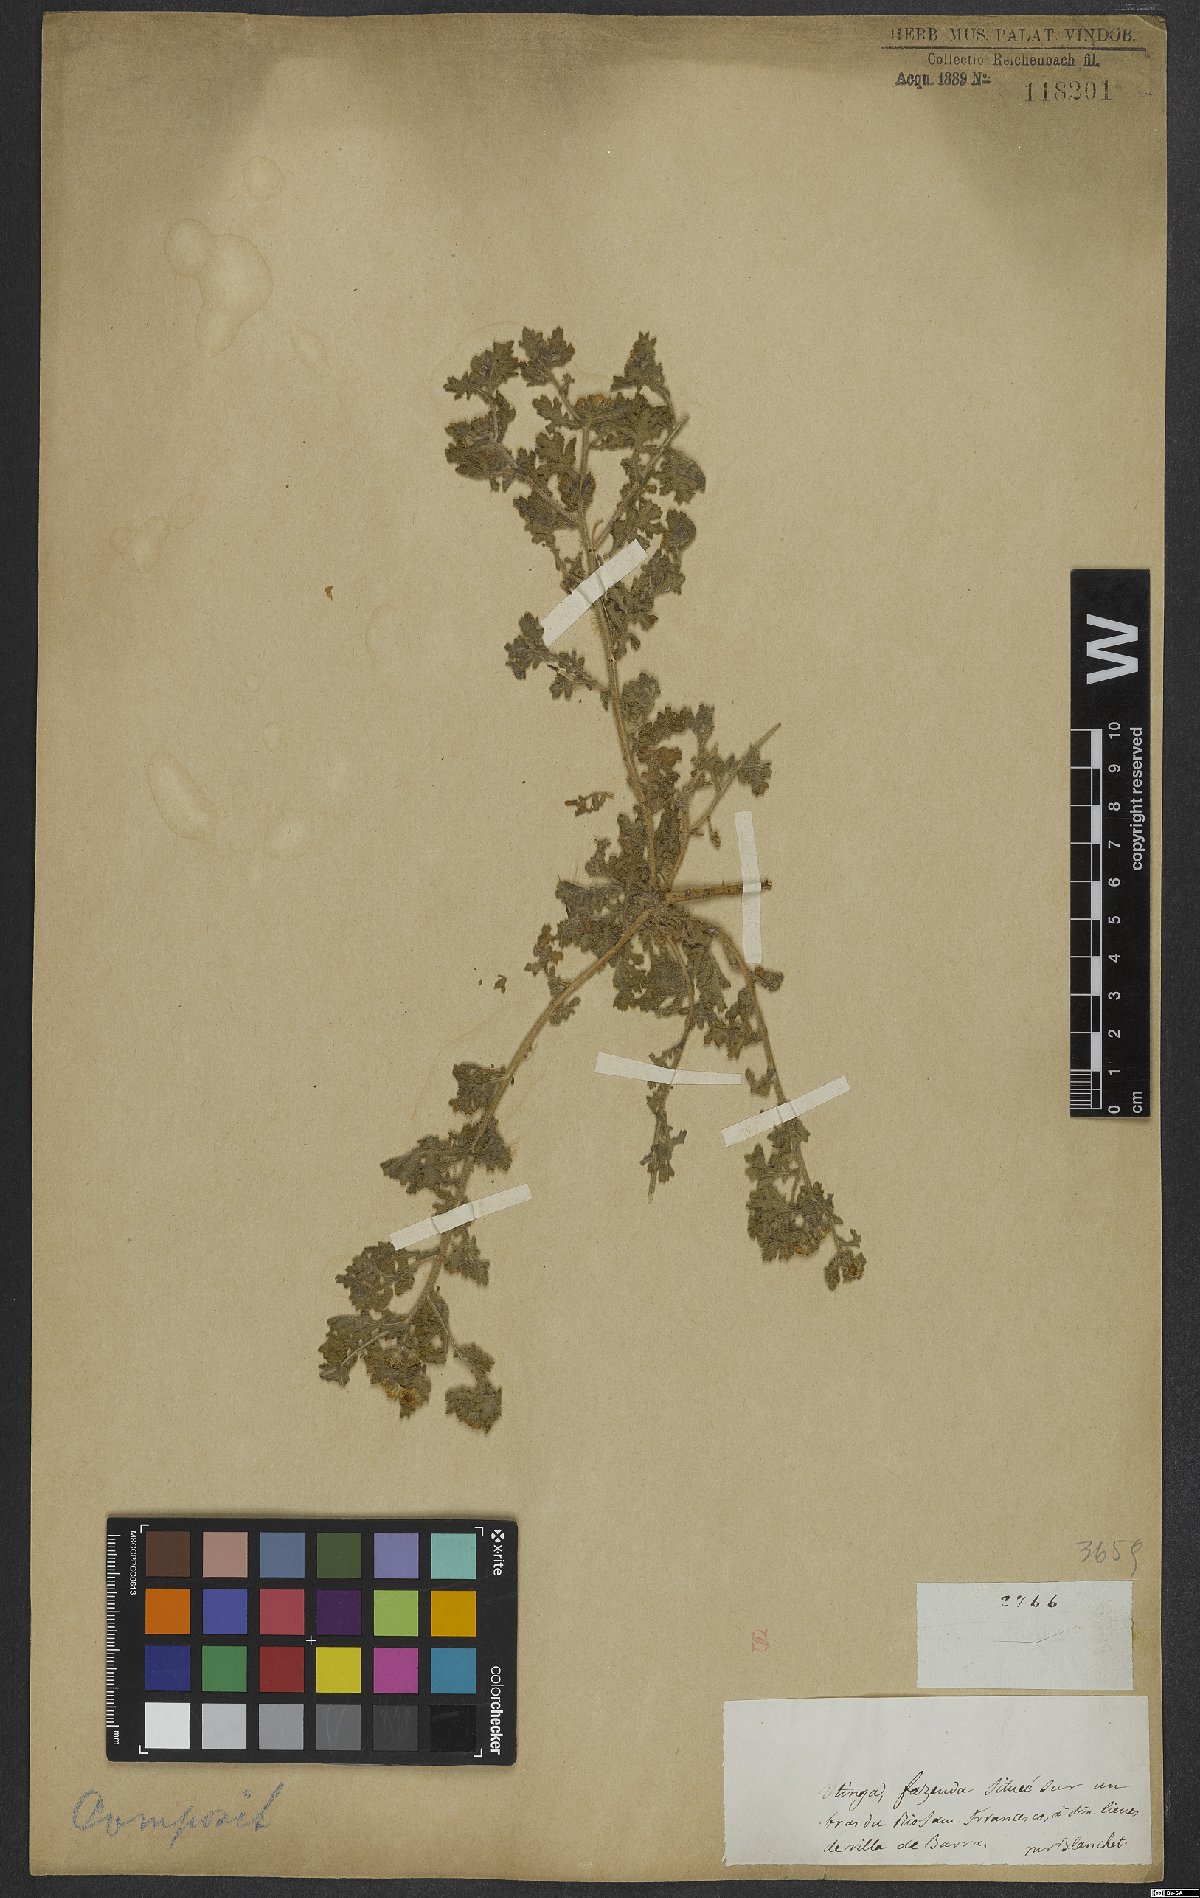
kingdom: Plantae
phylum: Tracheophyta
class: Magnoliopsida
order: Asterales
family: Asteraceae
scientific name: Asteraceae
